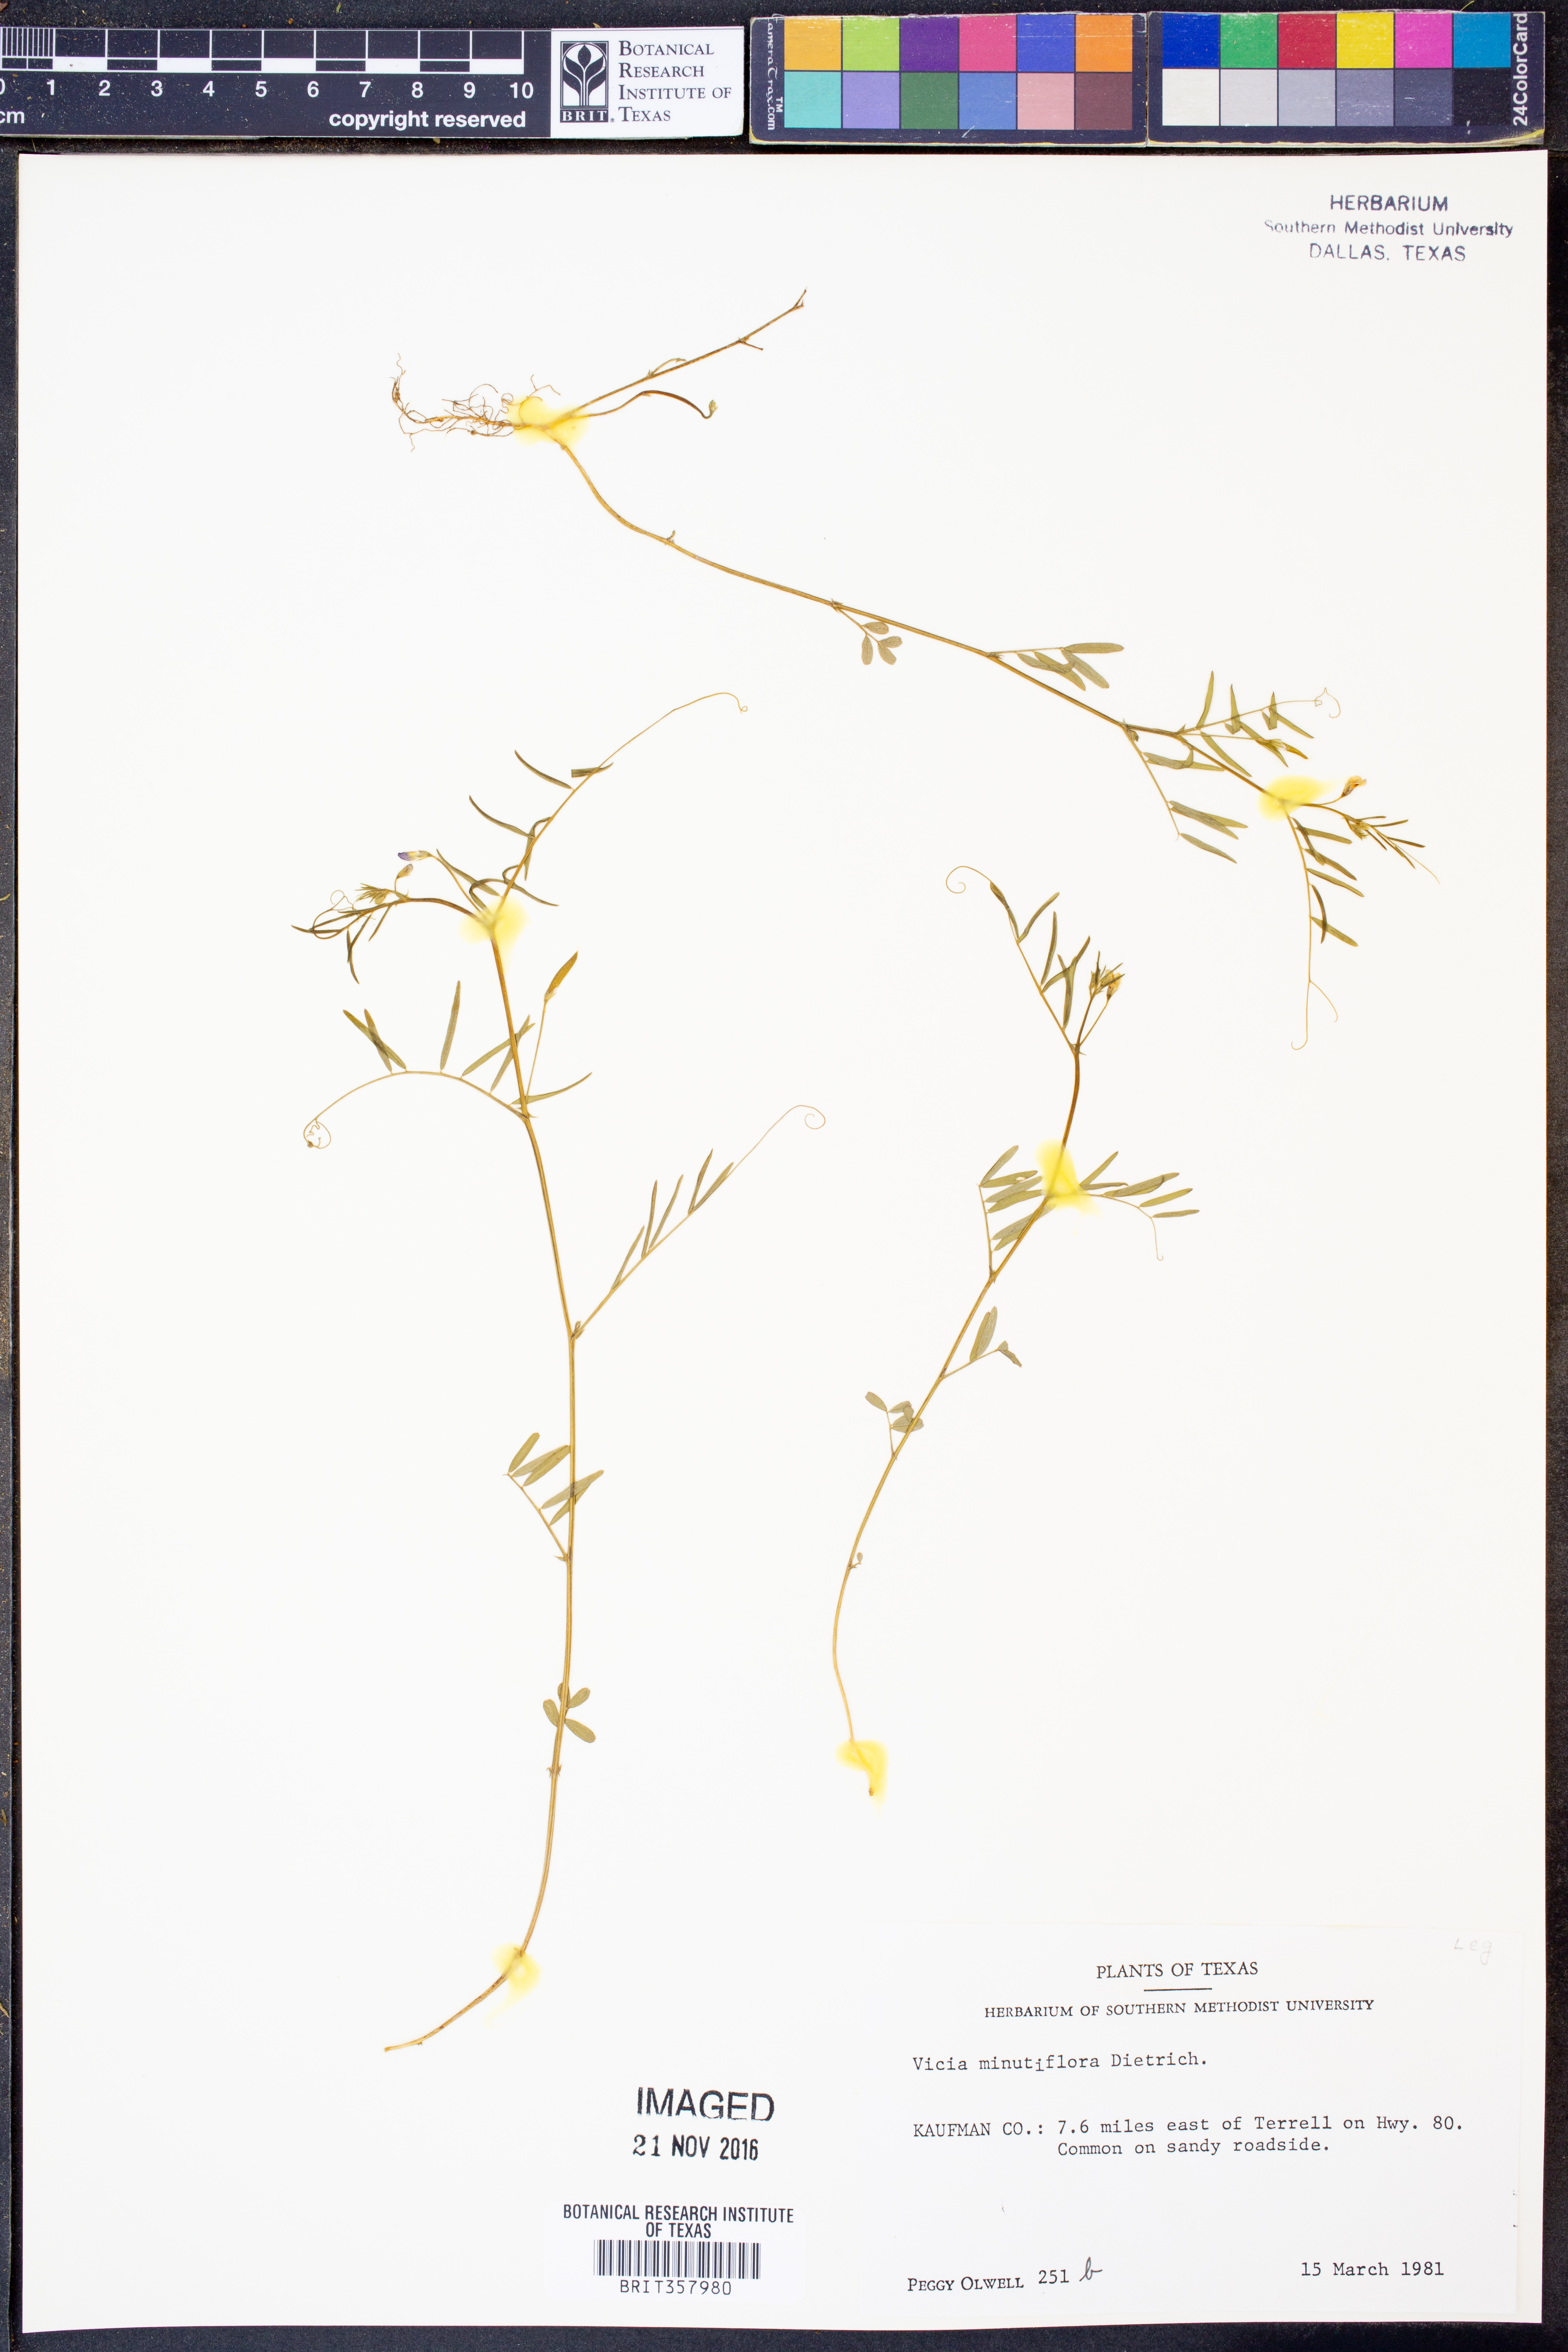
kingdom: Plantae
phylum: Tracheophyta
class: Magnoliopsida
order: Fabales
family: Fabaceae
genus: Vicia
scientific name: Vicia minutiflora
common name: Pygmy-flower vetch
